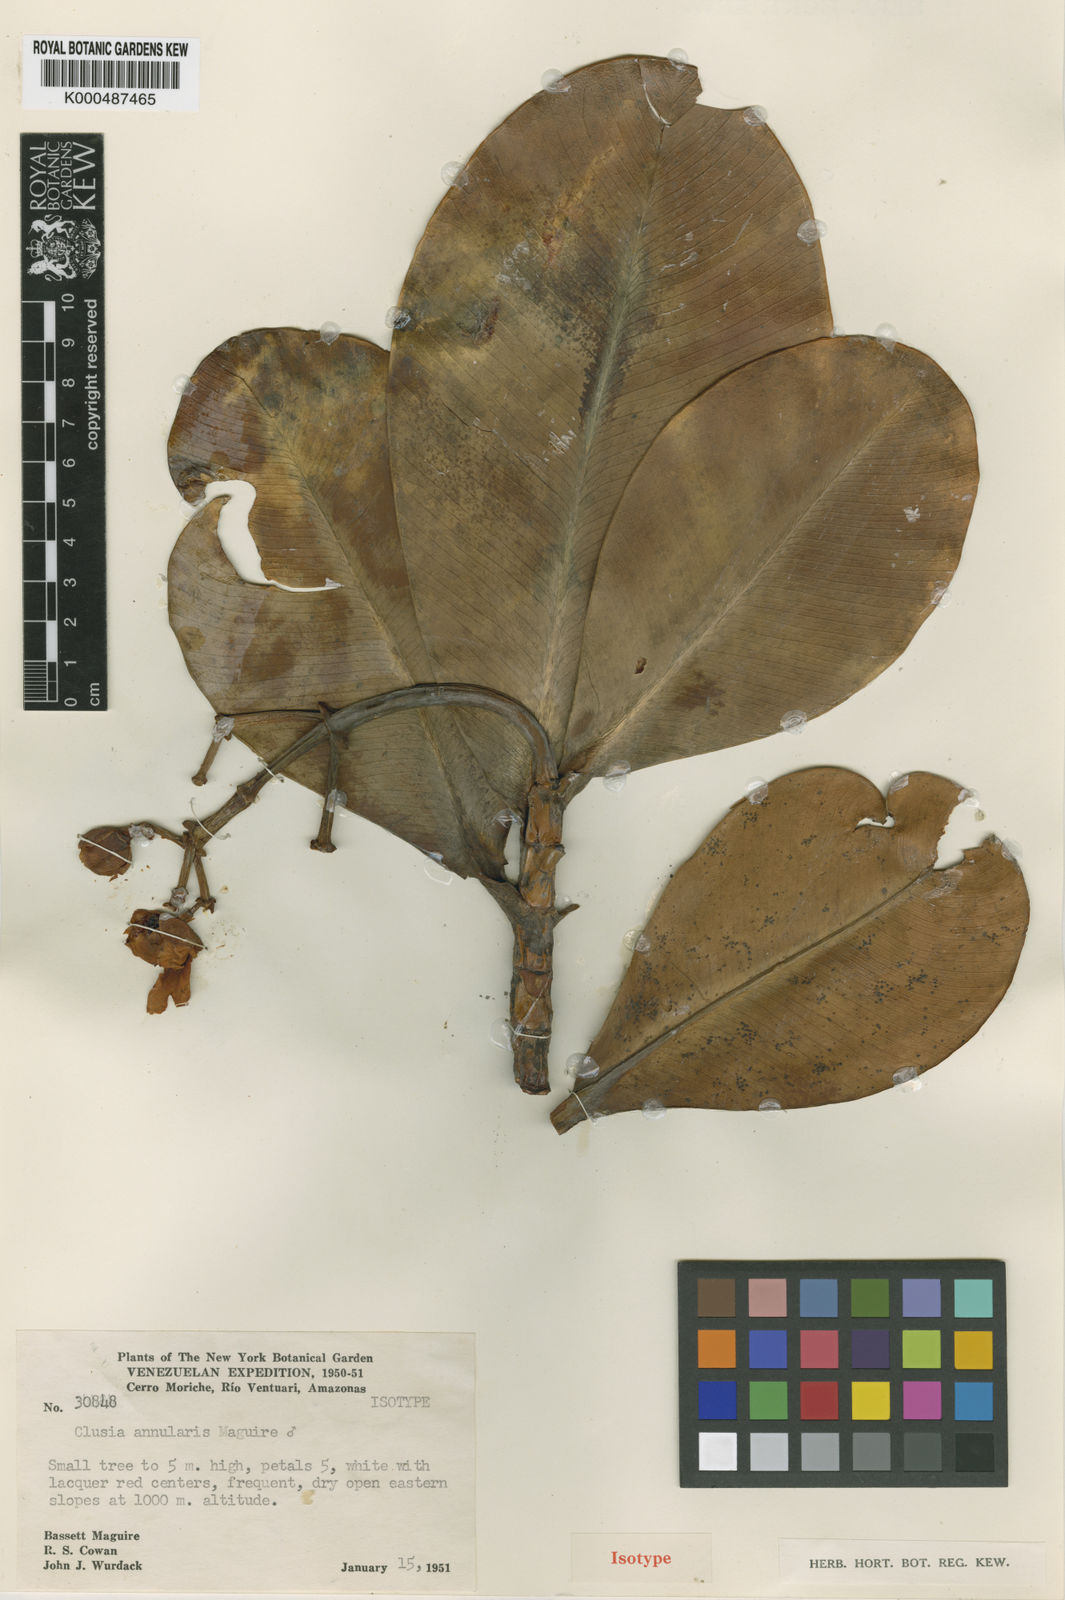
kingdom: Plantae
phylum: Tracheophyta
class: Magnoliopsida
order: Malpighiales
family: Clusiaceae
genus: Clusia
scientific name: Clusia annularis
